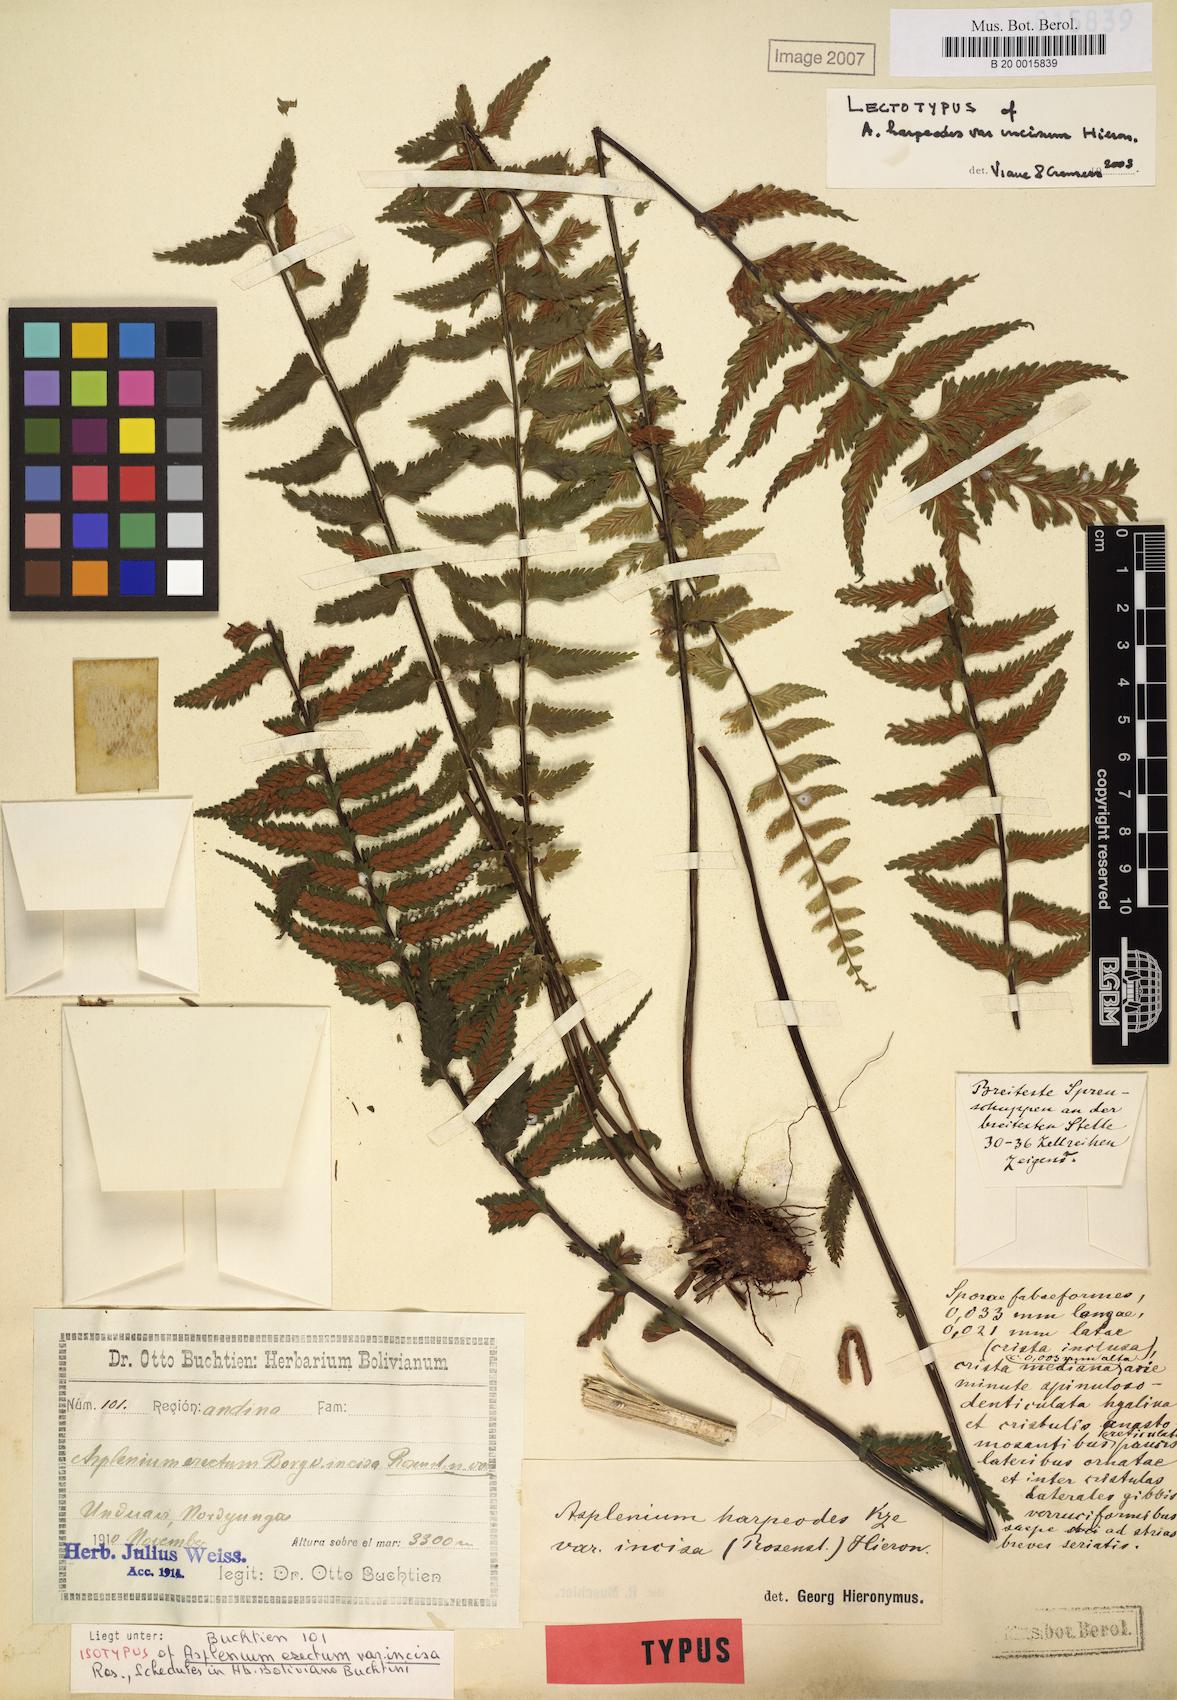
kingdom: Plantae
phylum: Tracheophyta
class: Polypodiopsida
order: Polypodiales
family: Aspleniaceae
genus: Asplenium
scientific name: Asplenium harpeodes
